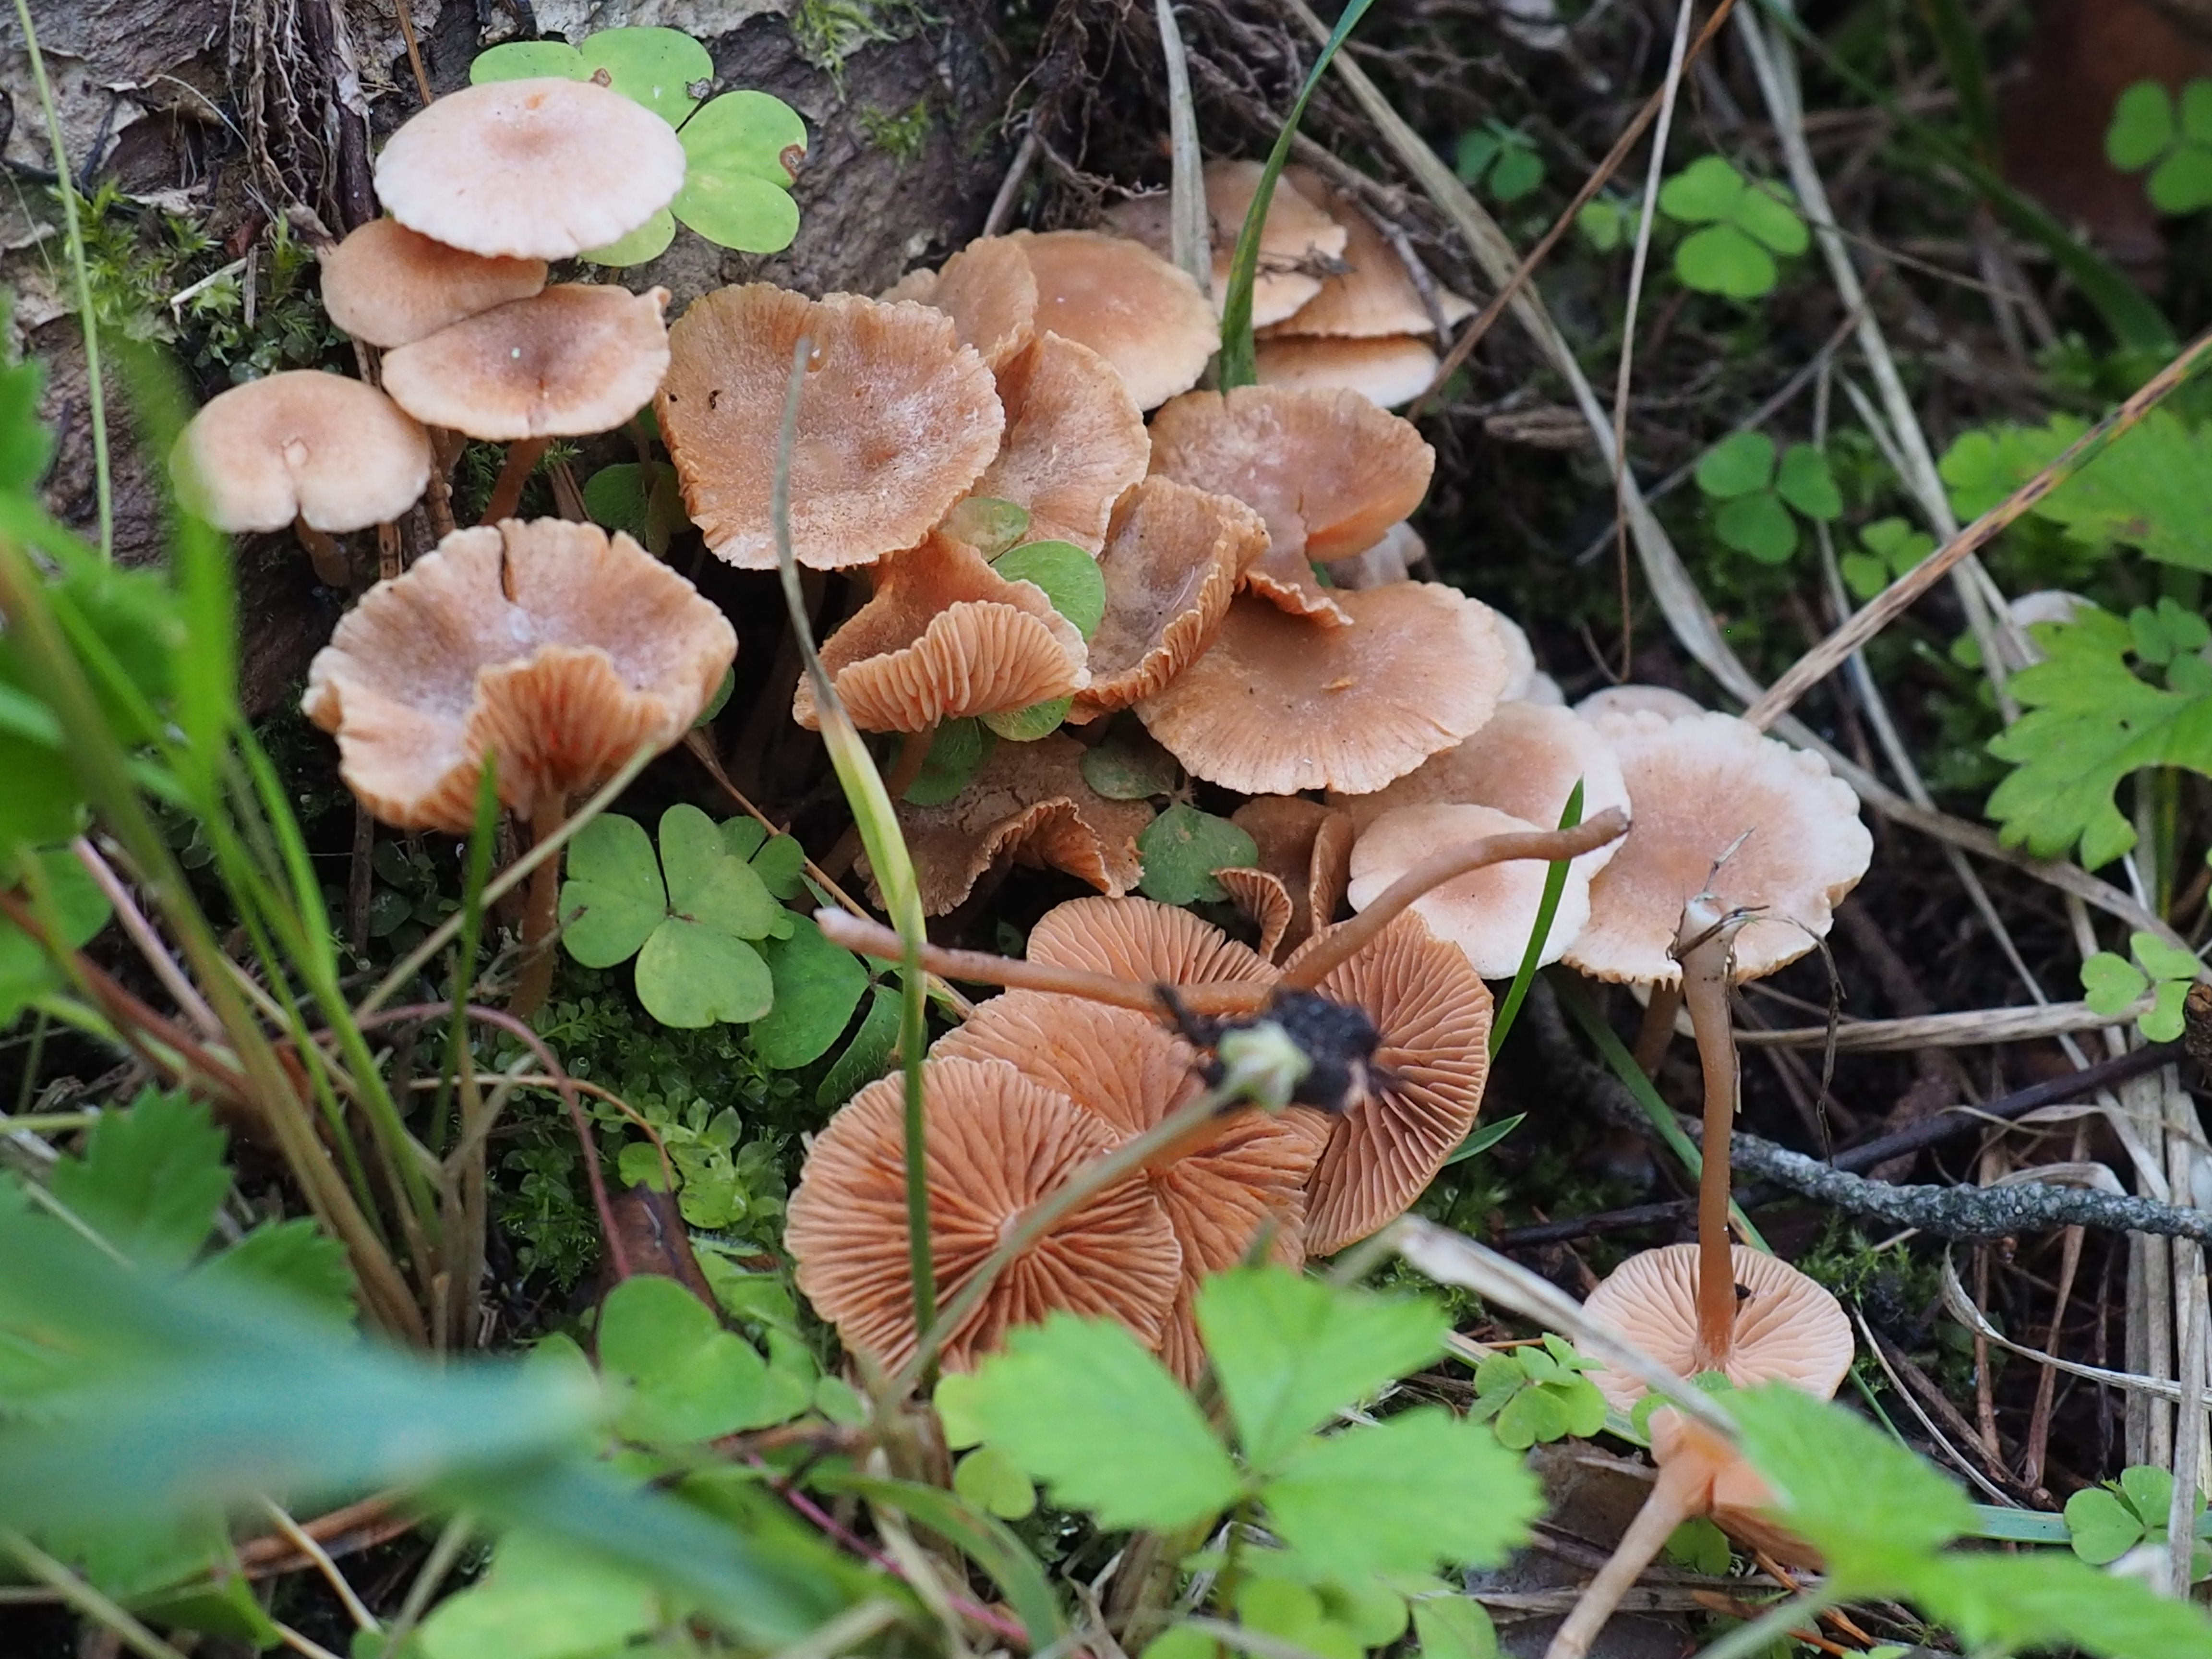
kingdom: Fungi
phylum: Basidiomycota
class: Agaricomycetes
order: Agaricales
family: Tubariaceae
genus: Tubaria
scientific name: Tubaria conspersa
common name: Felted twiglet
